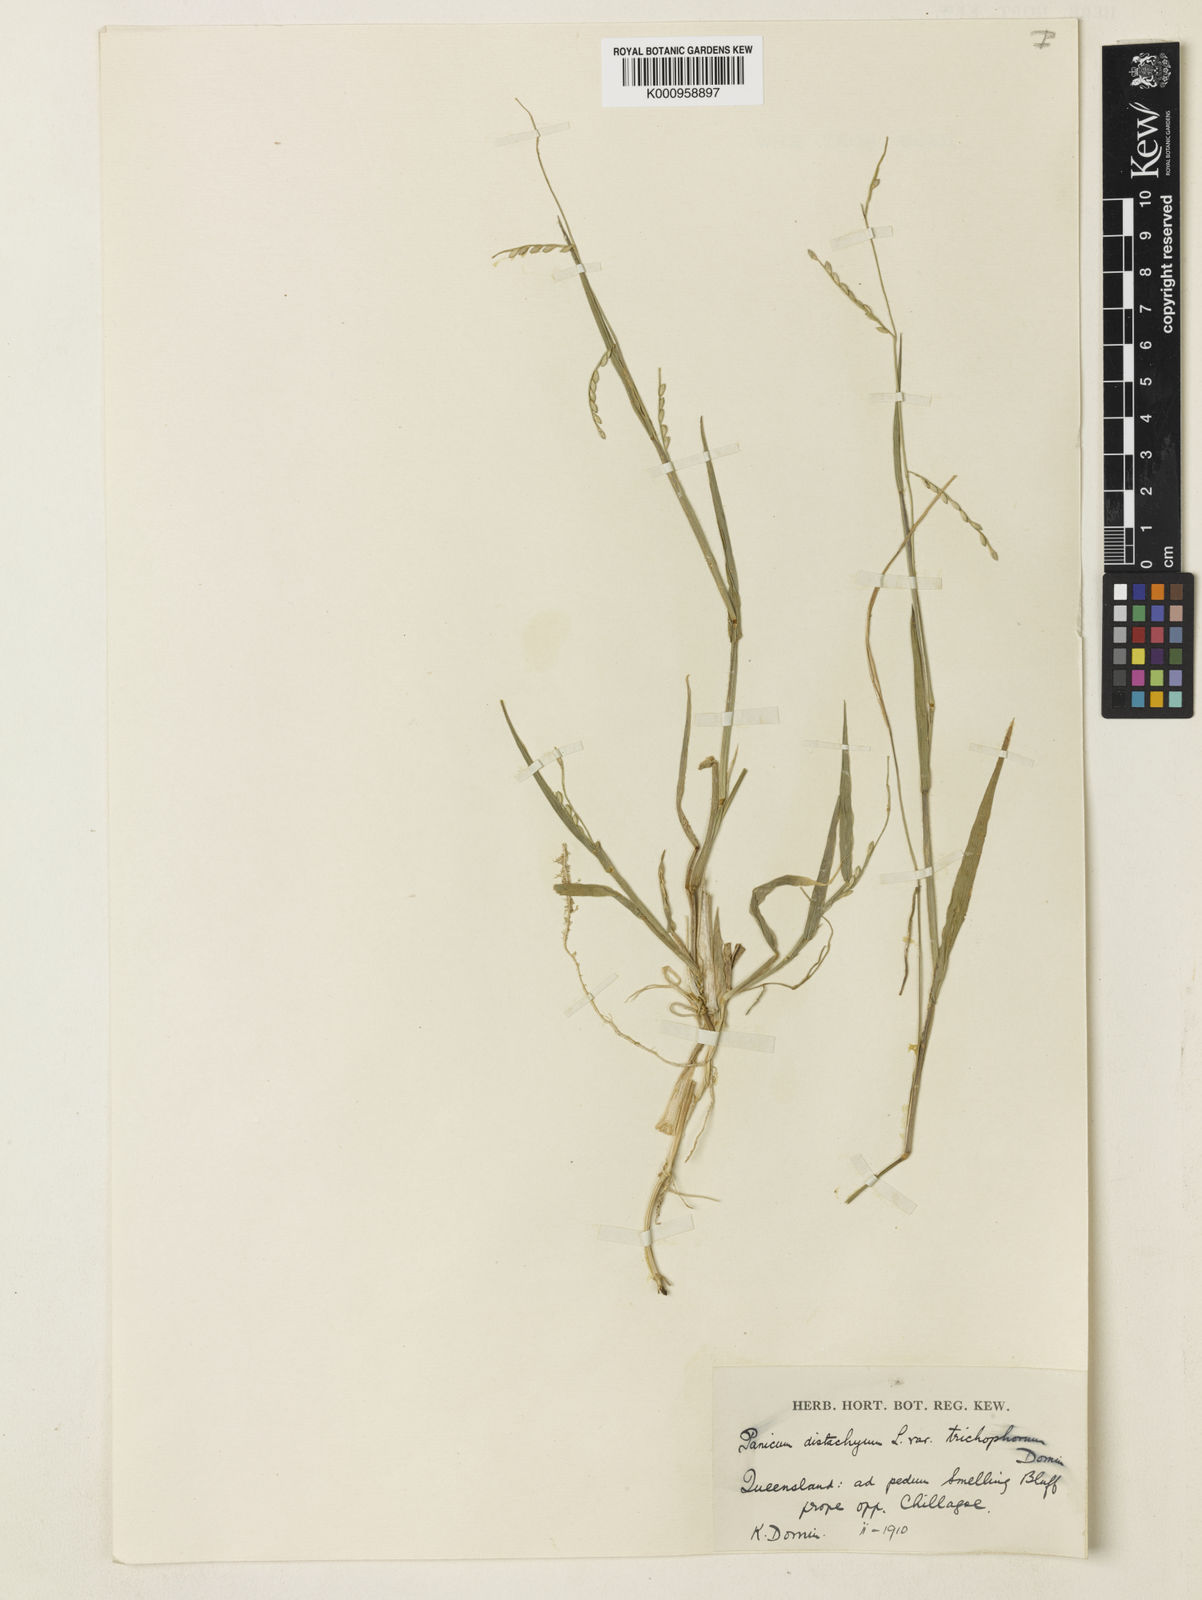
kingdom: Plantae
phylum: Tracheophyta
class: Liliopsida
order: Poales
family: Poaceae
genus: Urochloa
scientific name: Urochloa subquadripara
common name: Armgrass millet
